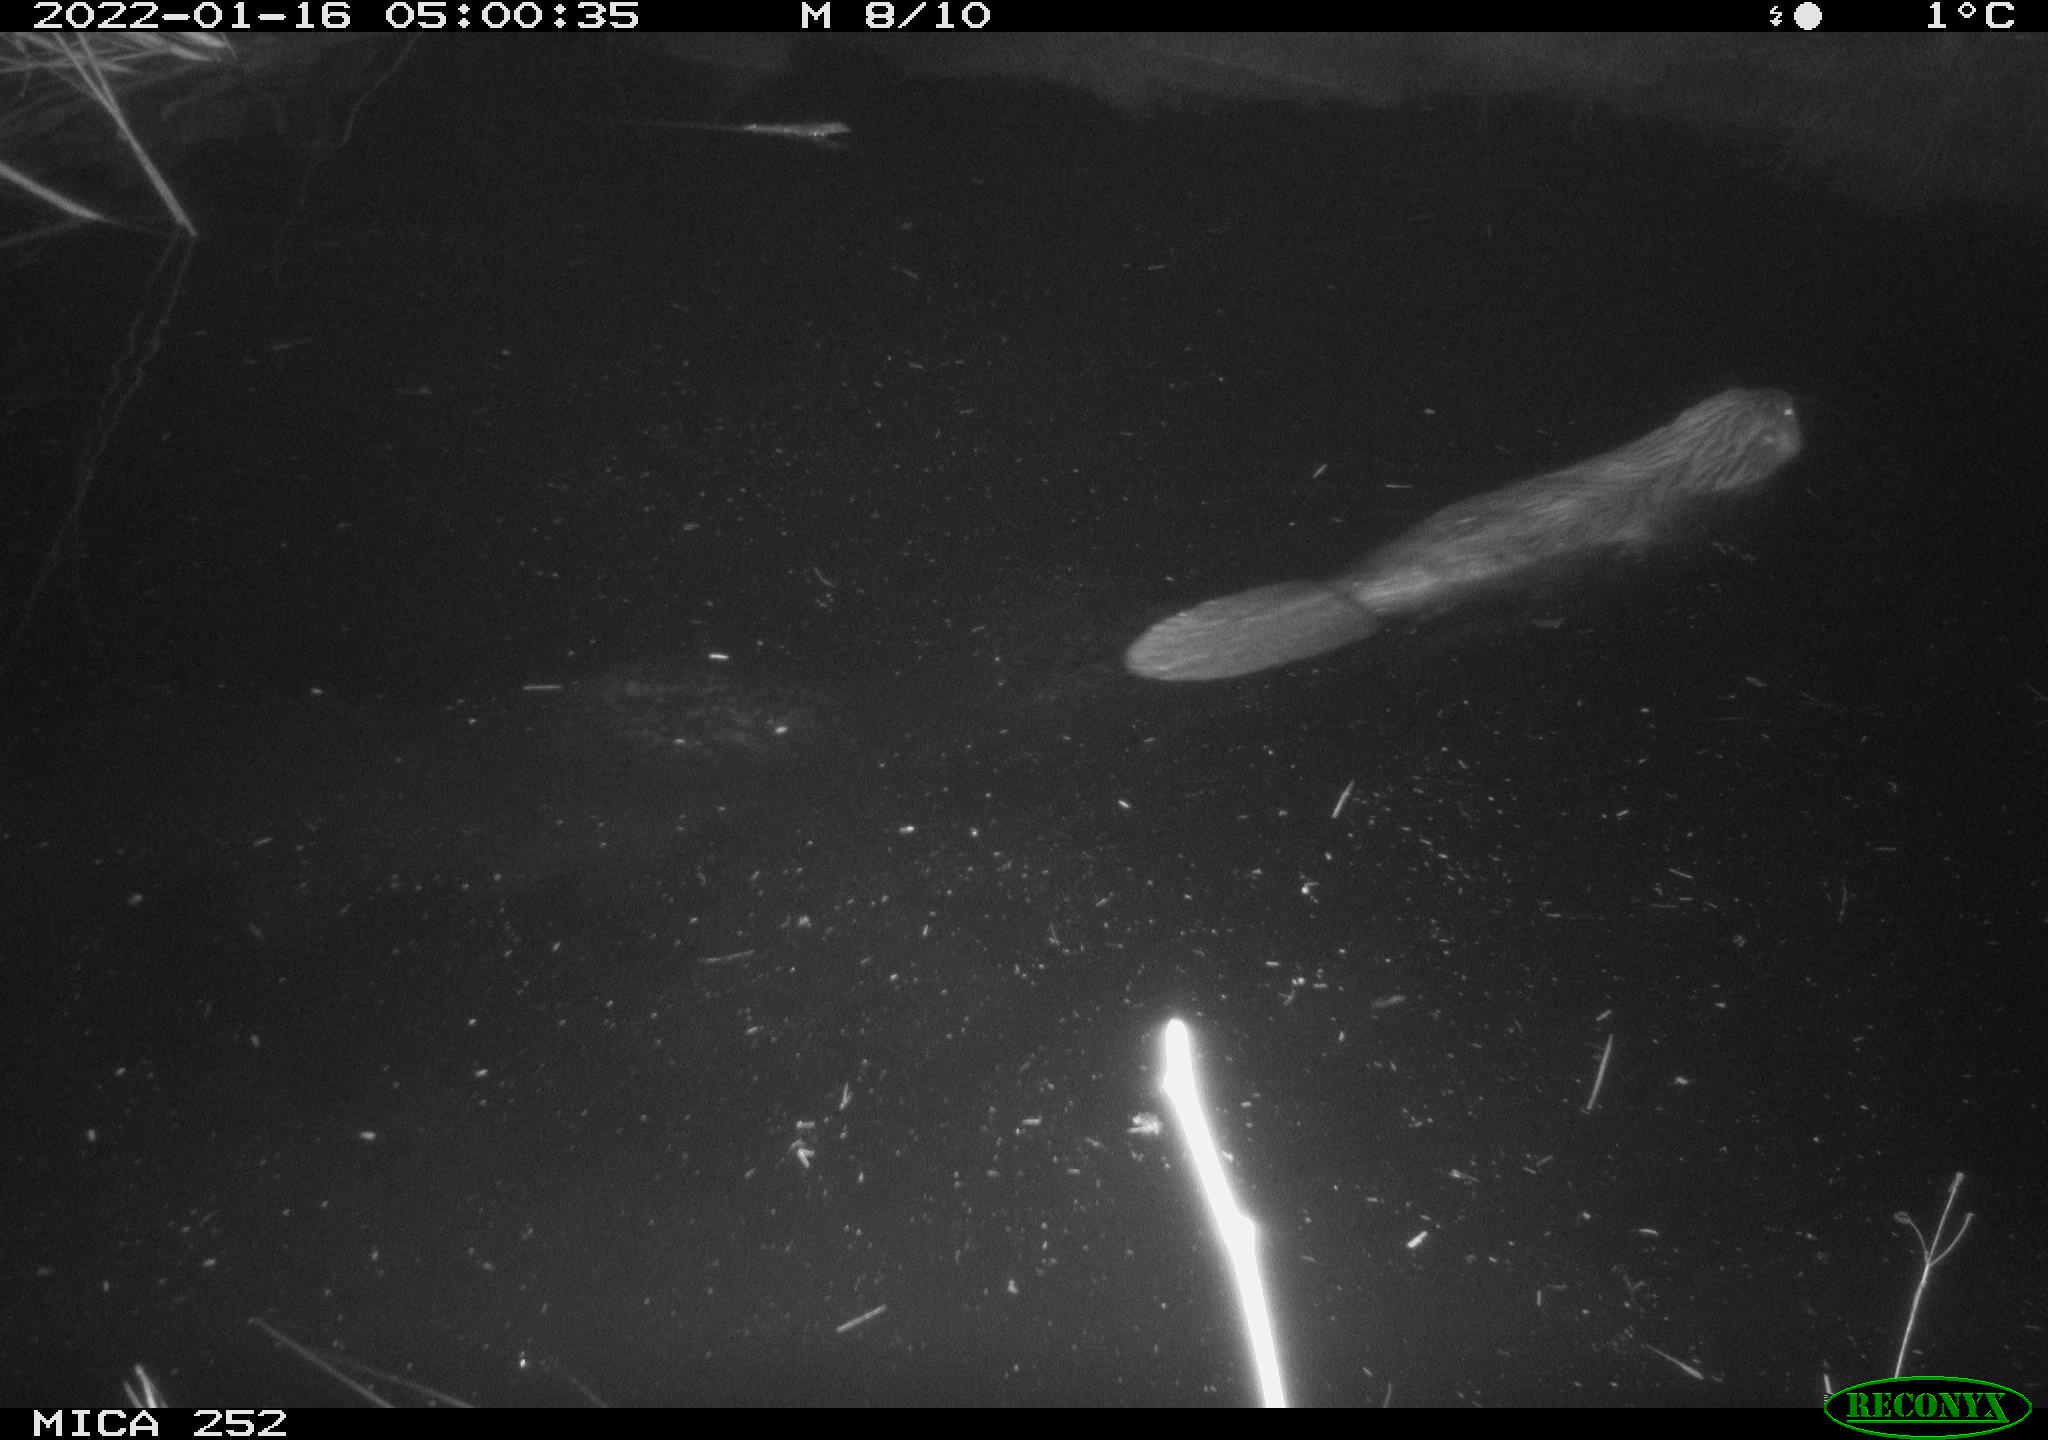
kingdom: Animalia
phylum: Chordata
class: Mammalia
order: Rodentia
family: Castoridae
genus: Castor
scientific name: Castor fiber
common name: Eurasian beaver
